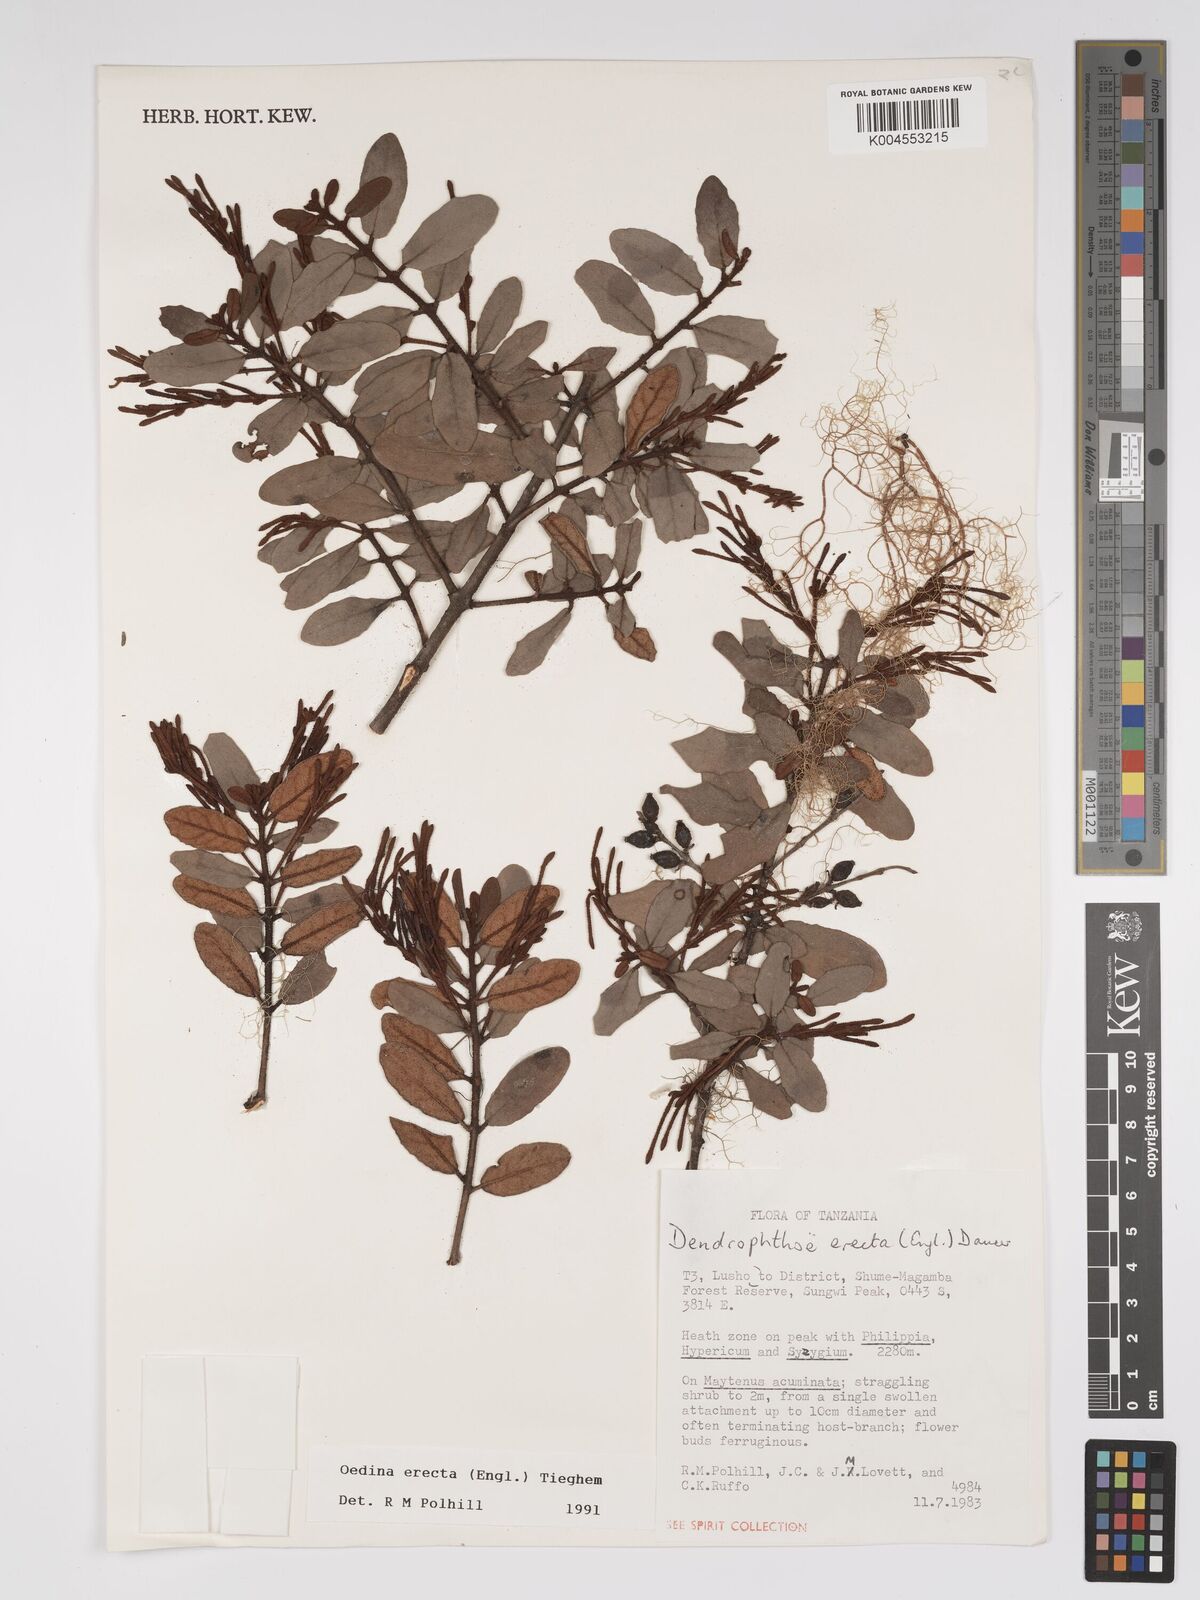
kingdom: Plantae
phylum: Tracheophyta
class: Magnoliopsida
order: Santalales
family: Loranthaceae
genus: Oedina
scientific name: Oedina erecta
